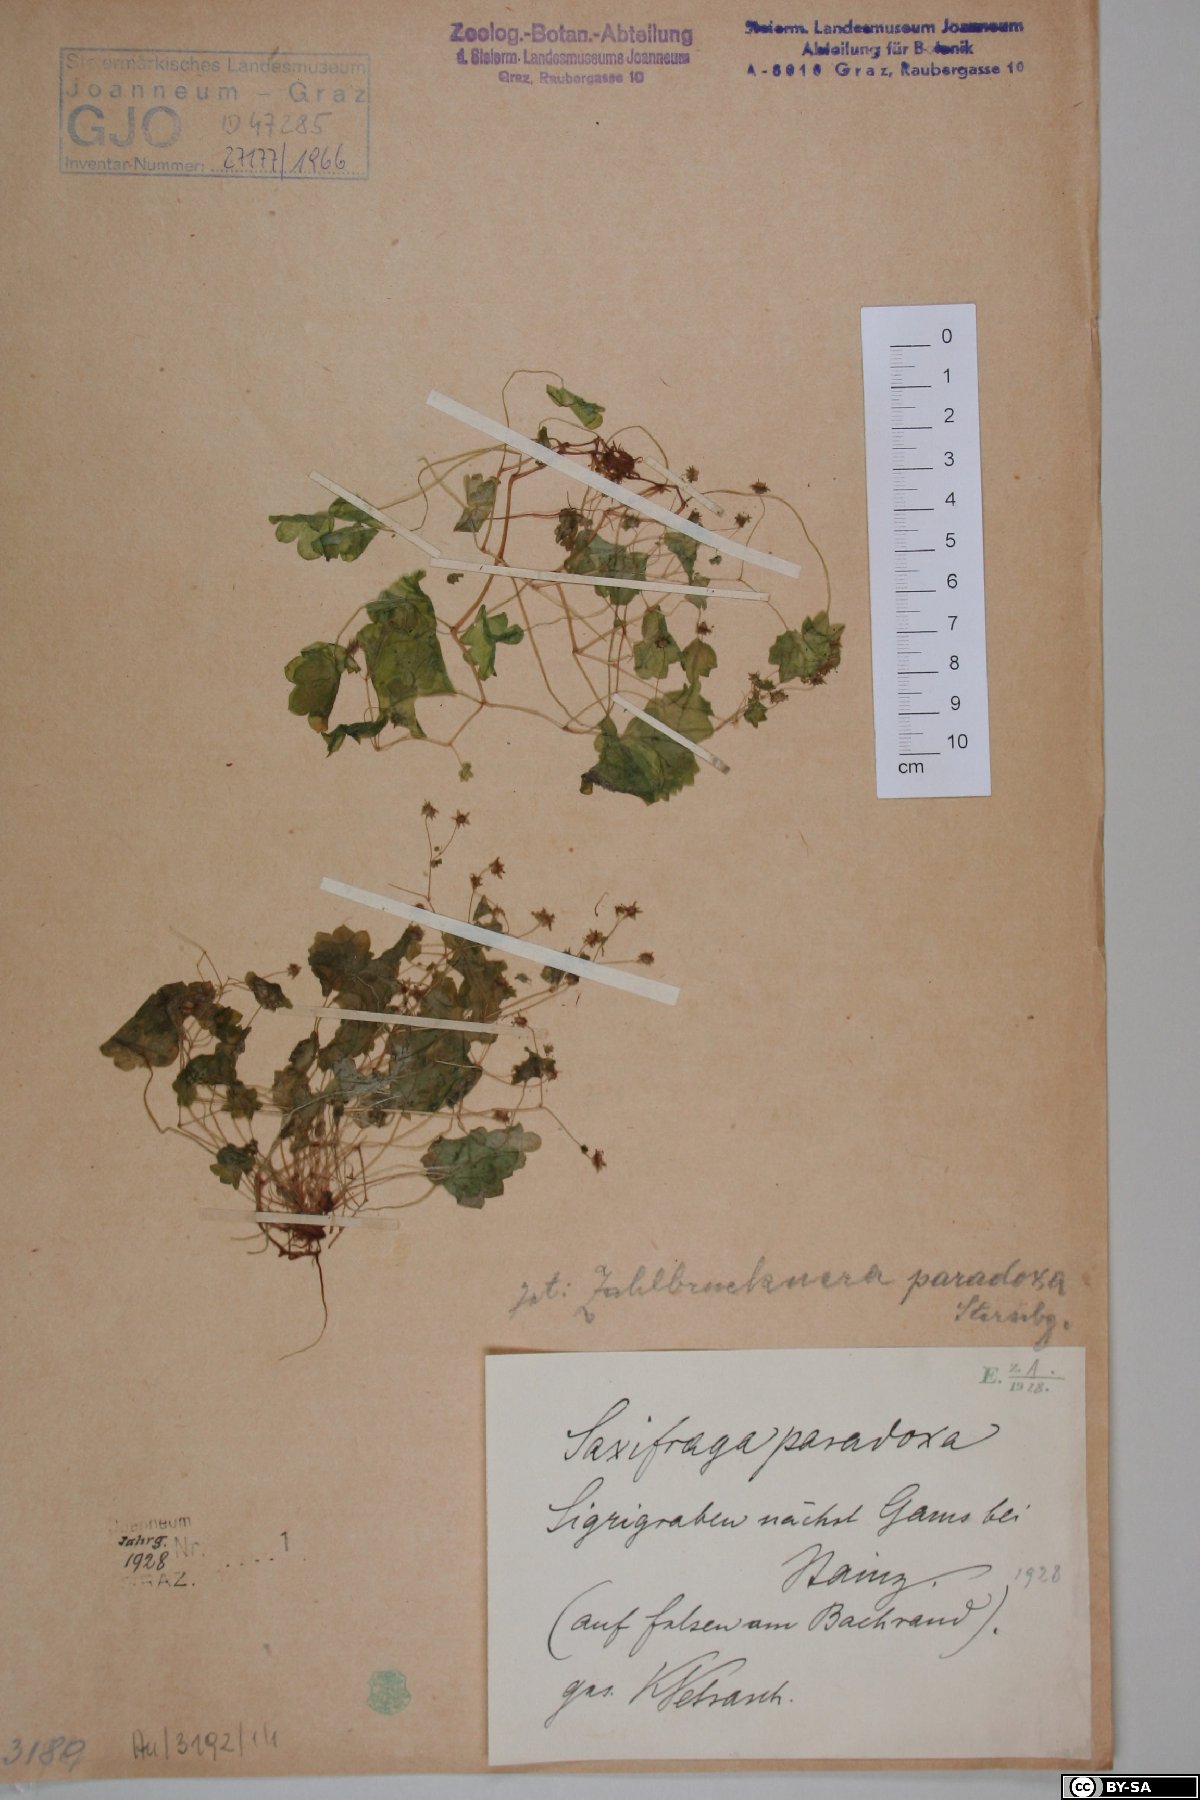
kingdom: Plantae
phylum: Tracheophyta
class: Magnoliopsida
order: Saxifragales
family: Saxifragaceae
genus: Saxifraga
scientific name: Saxifraga paradoxa
